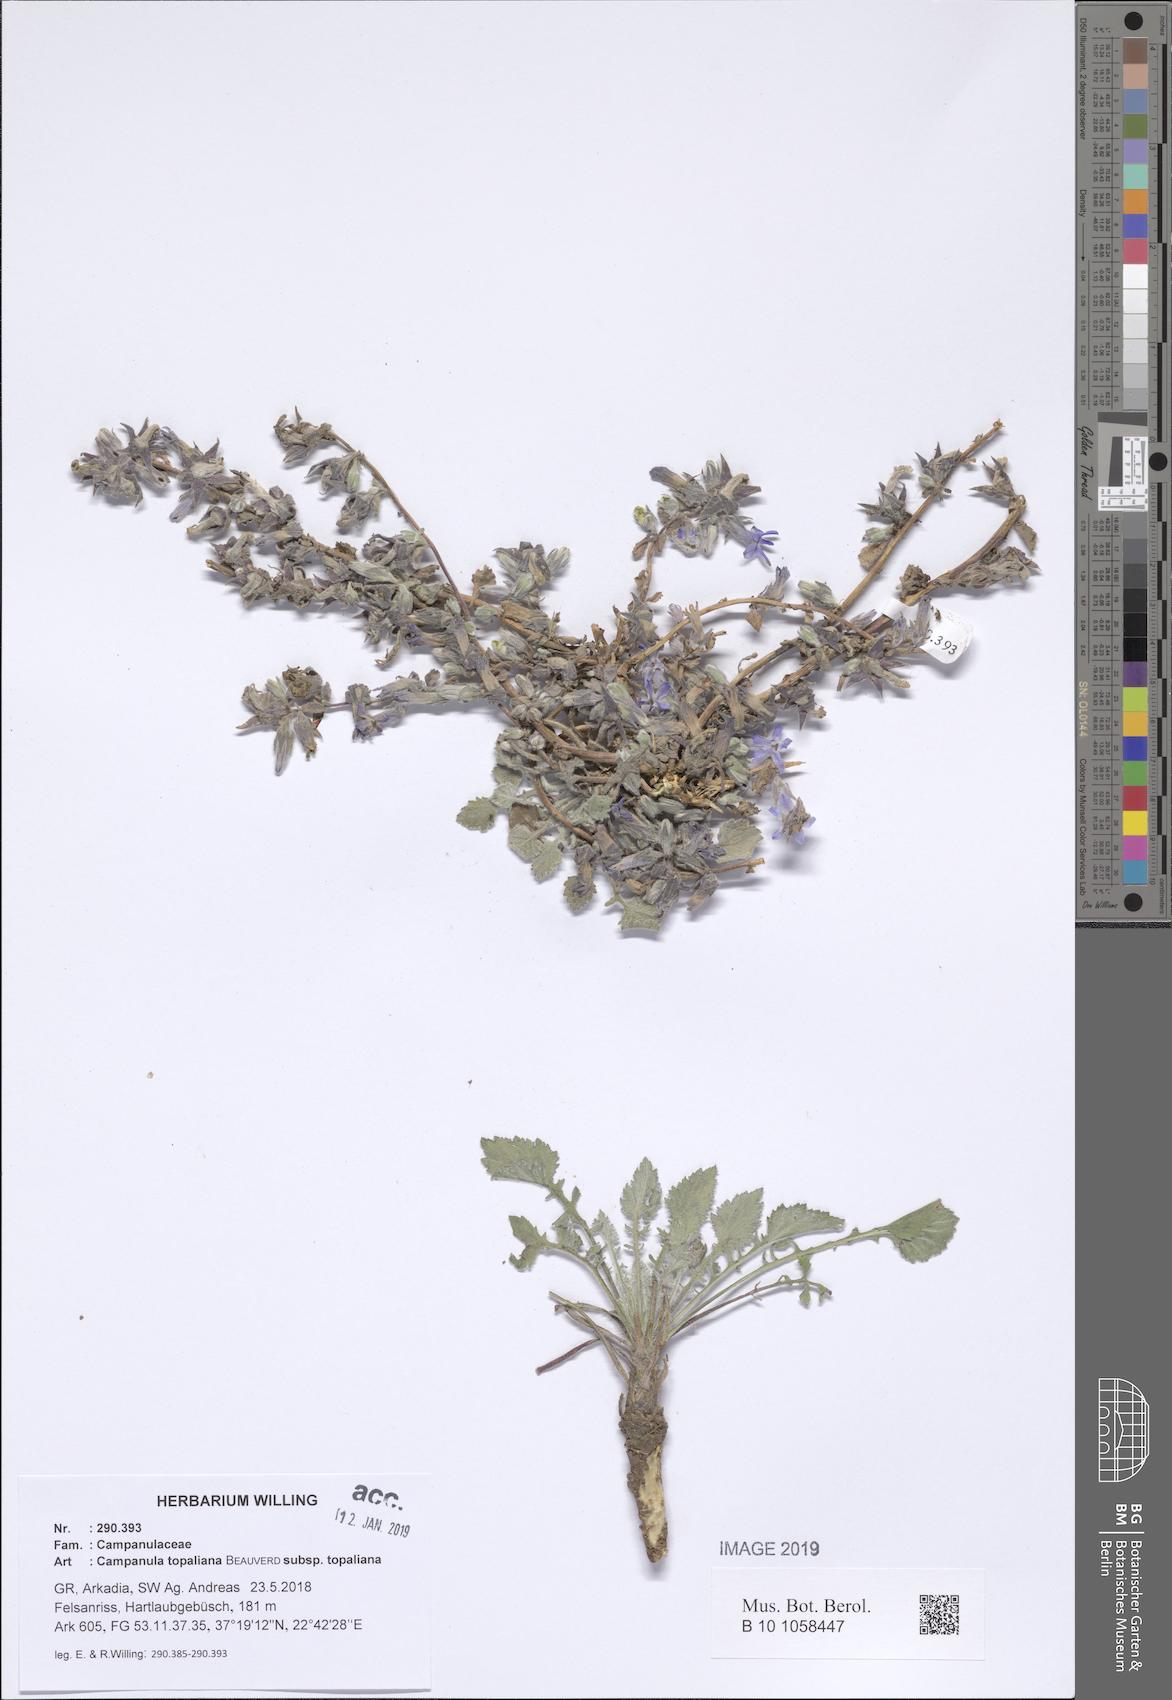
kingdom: Plantae
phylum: Tracheophyta
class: Magnoliopsida
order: Asterales
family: Campanulaceae
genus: Campanula
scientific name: Campanula topaliana
